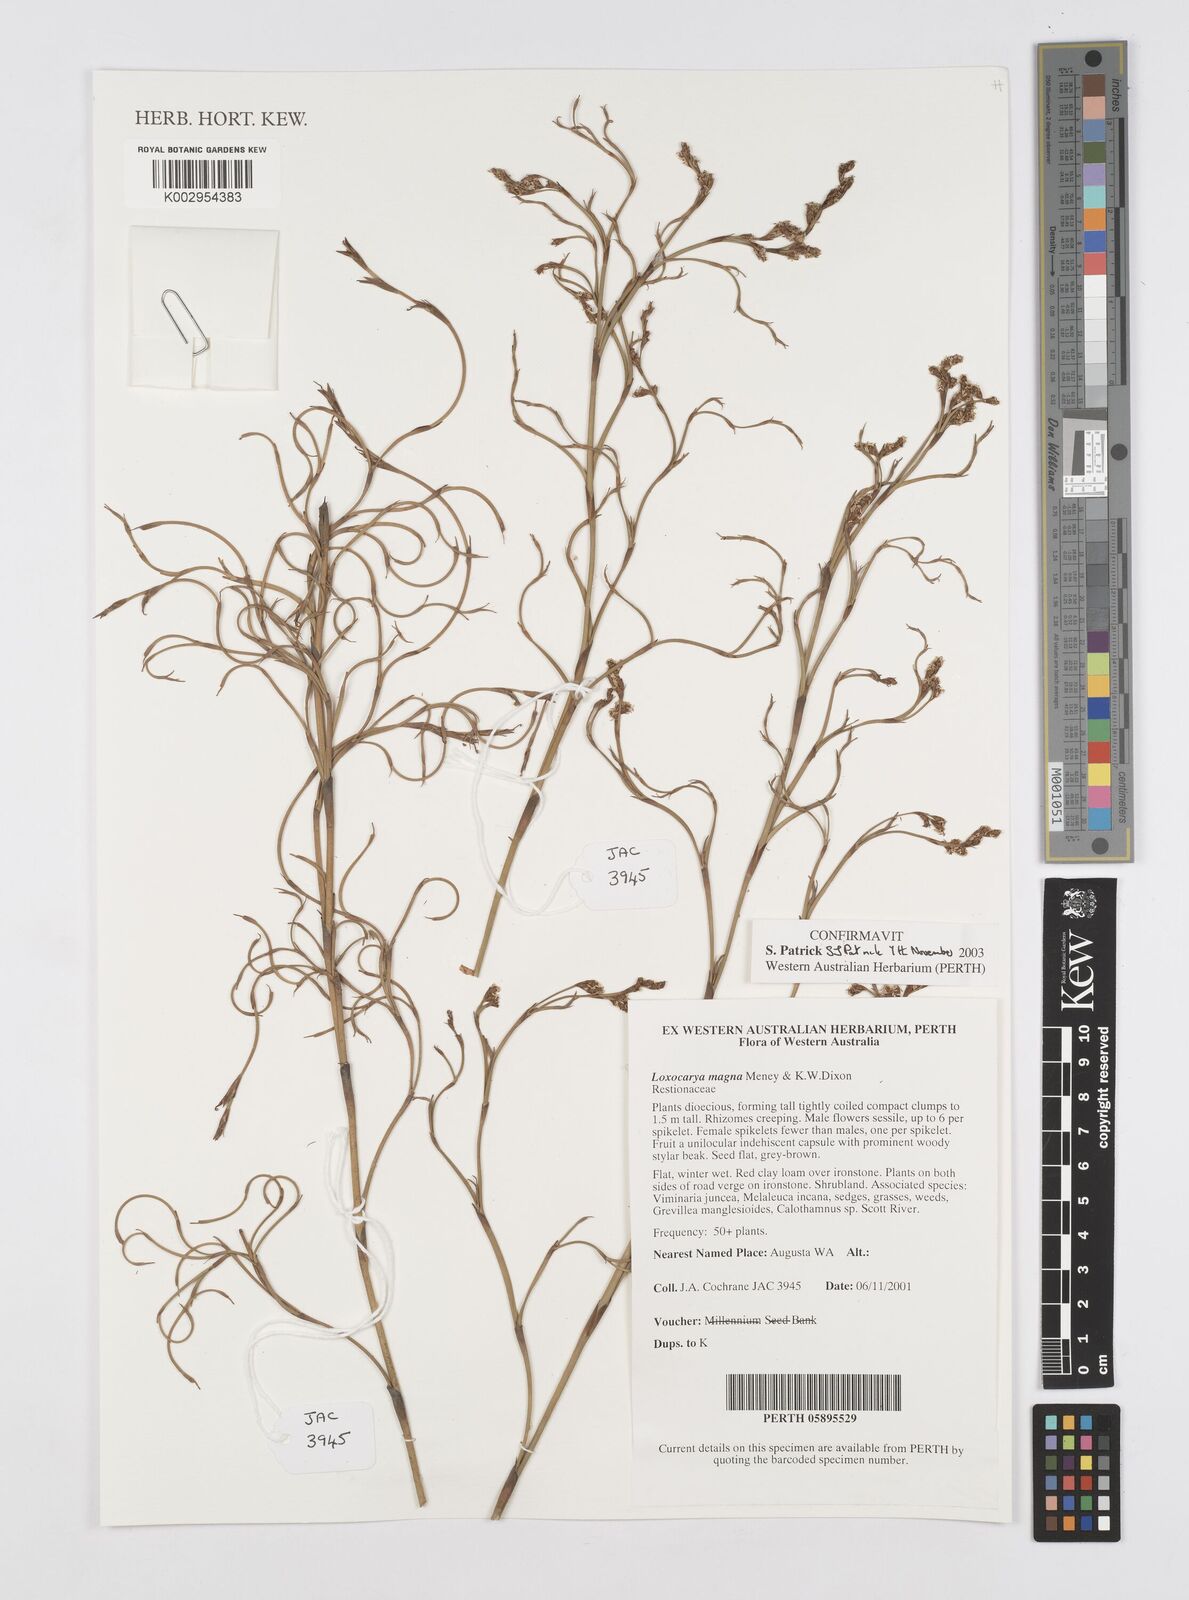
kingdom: Plantae
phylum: Tracheophyta
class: Liliopsida
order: Poales
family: Restionaceae
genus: Loxocarya
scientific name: Loxocarya magna
